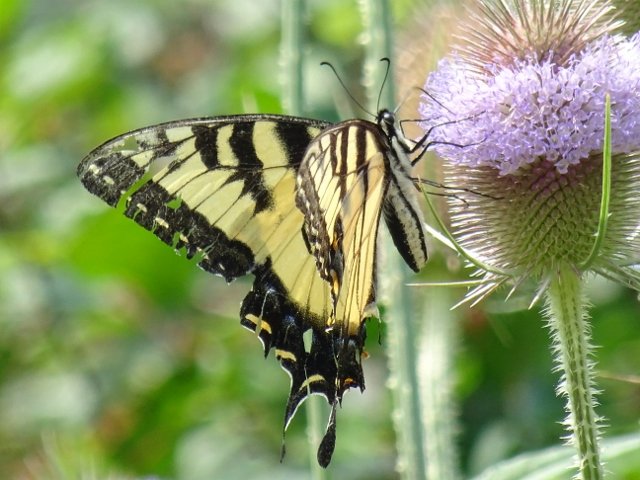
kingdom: Animalia
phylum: Arthropoda
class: Insecta
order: Lepidoptera
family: Papilionidae
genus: Pterourus
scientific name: Pterourus glaucus
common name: Eastern Tiger Swallowtail
